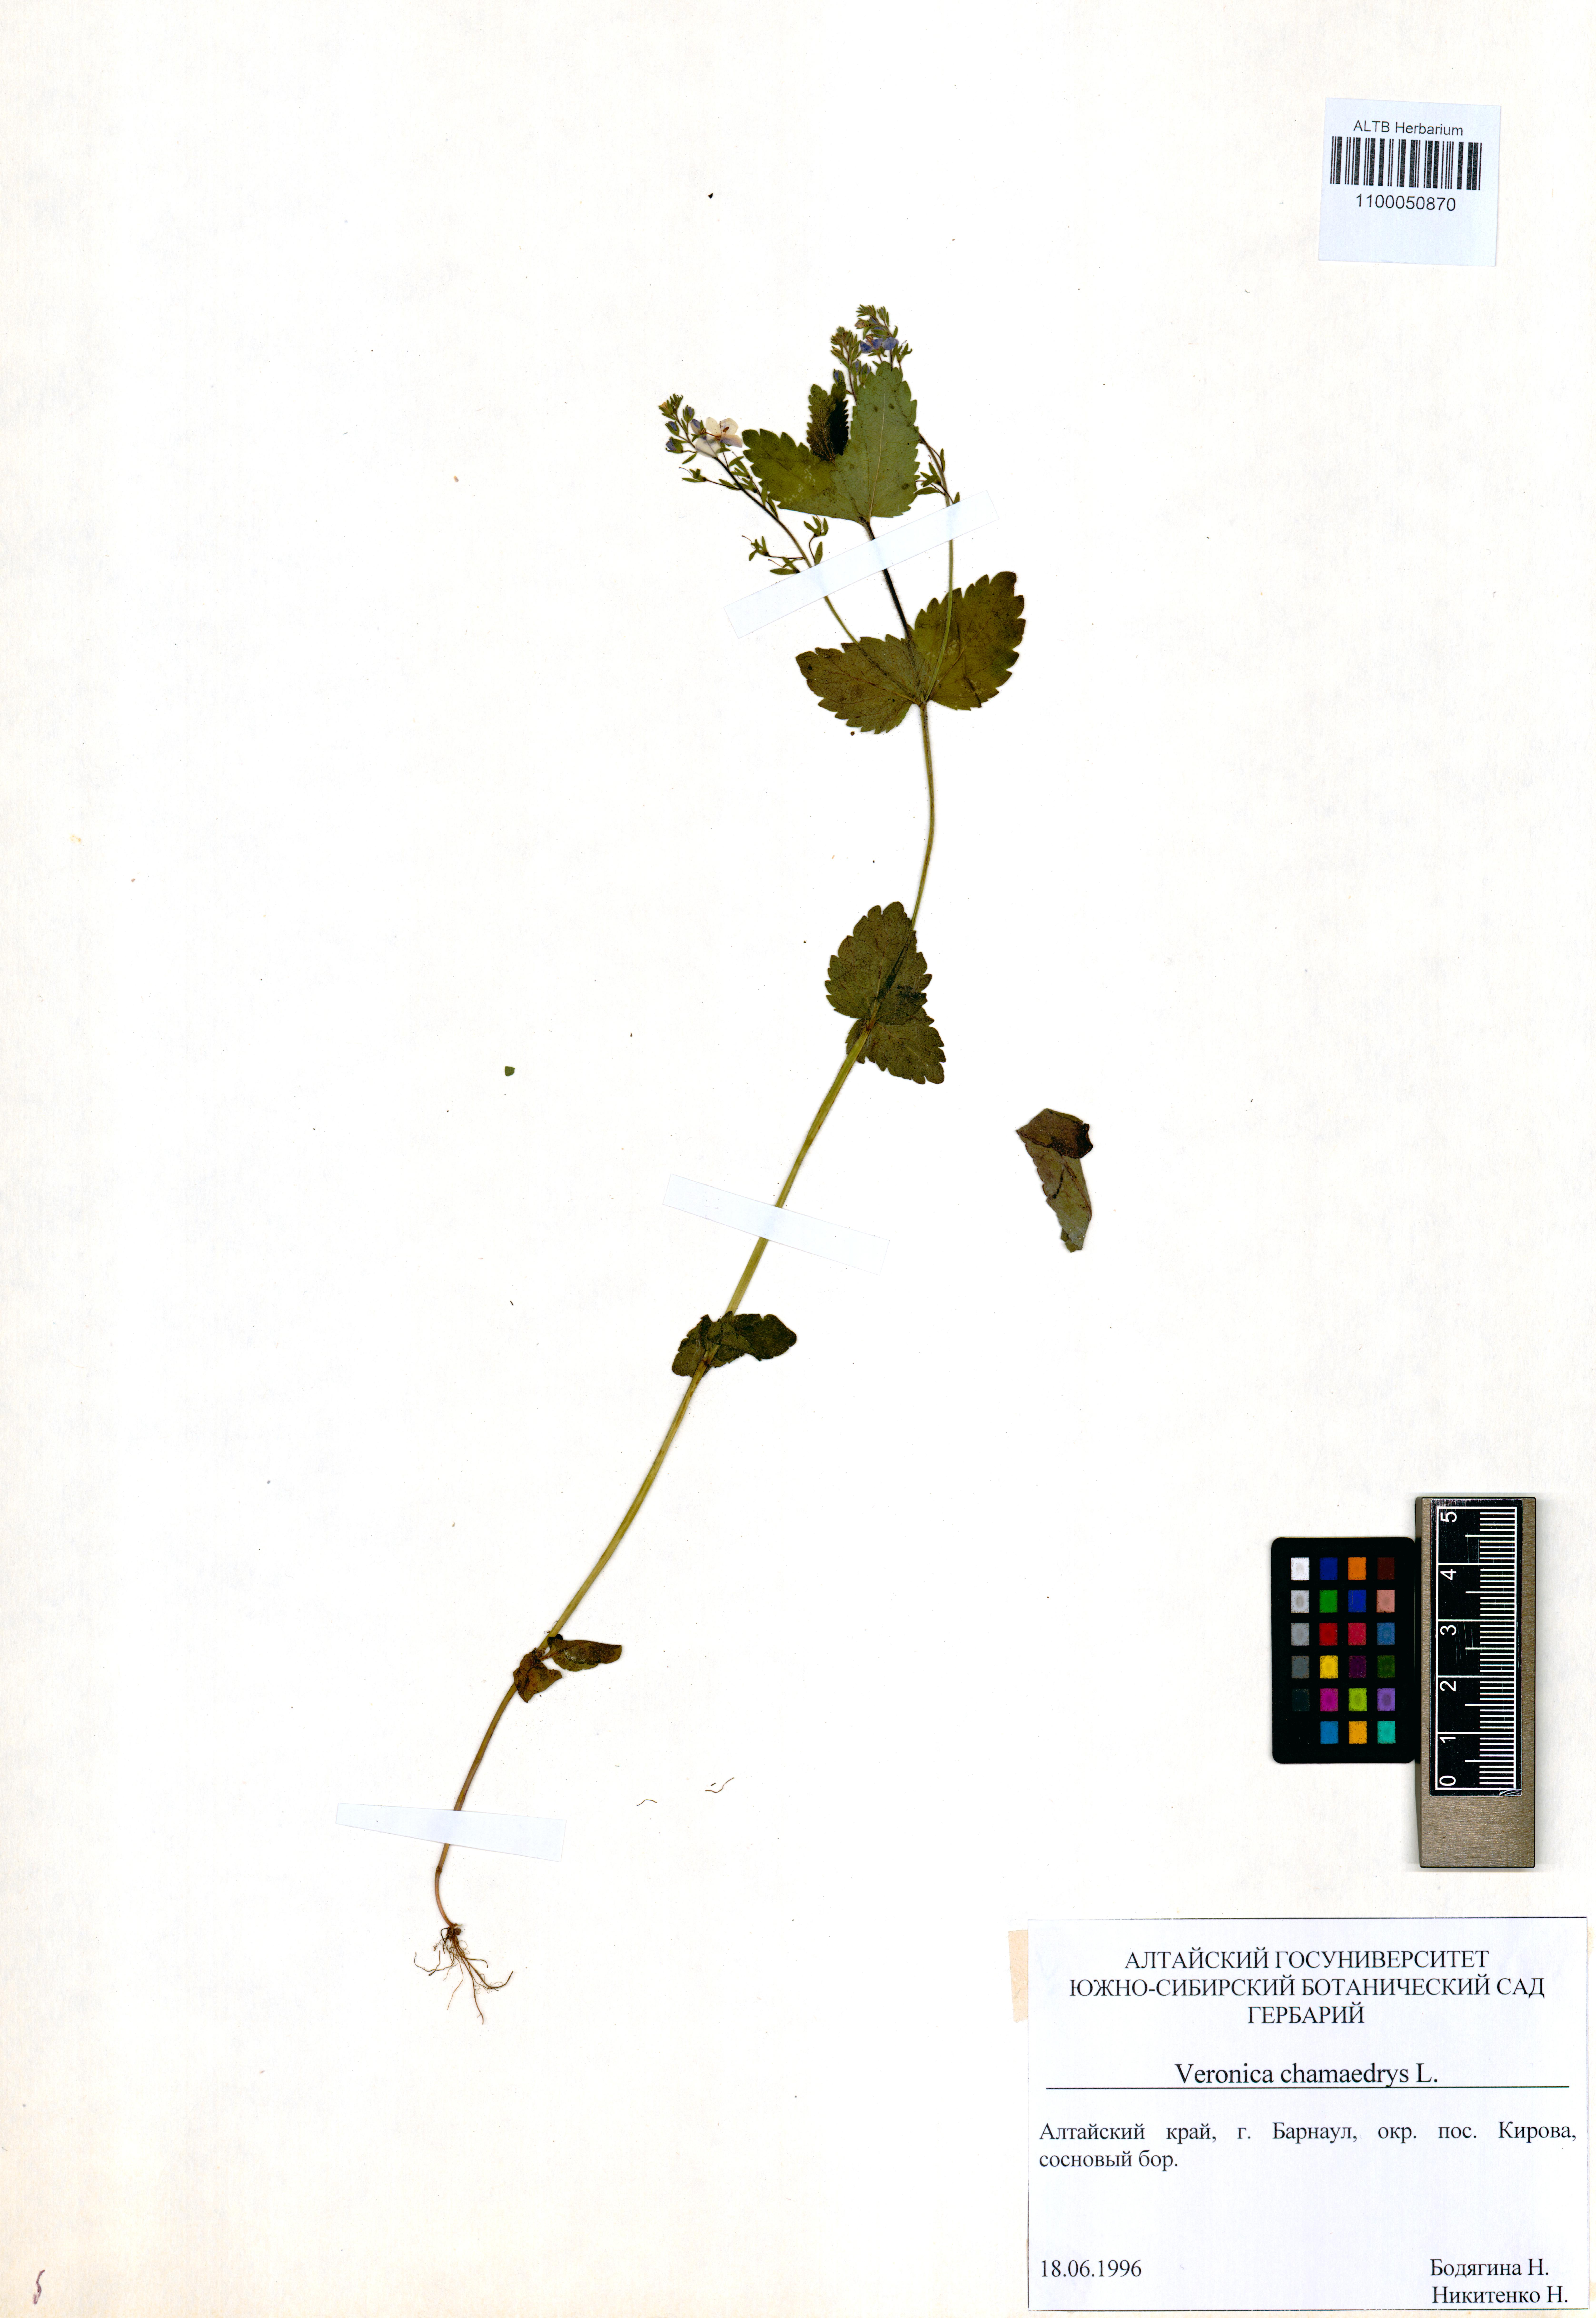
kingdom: Plantae
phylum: Tracheophyta
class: Magnoliopsida
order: Lamiales
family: Plantaginaceae
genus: Veronica
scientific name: Veronica chamaedrys
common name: Germander speedwell
